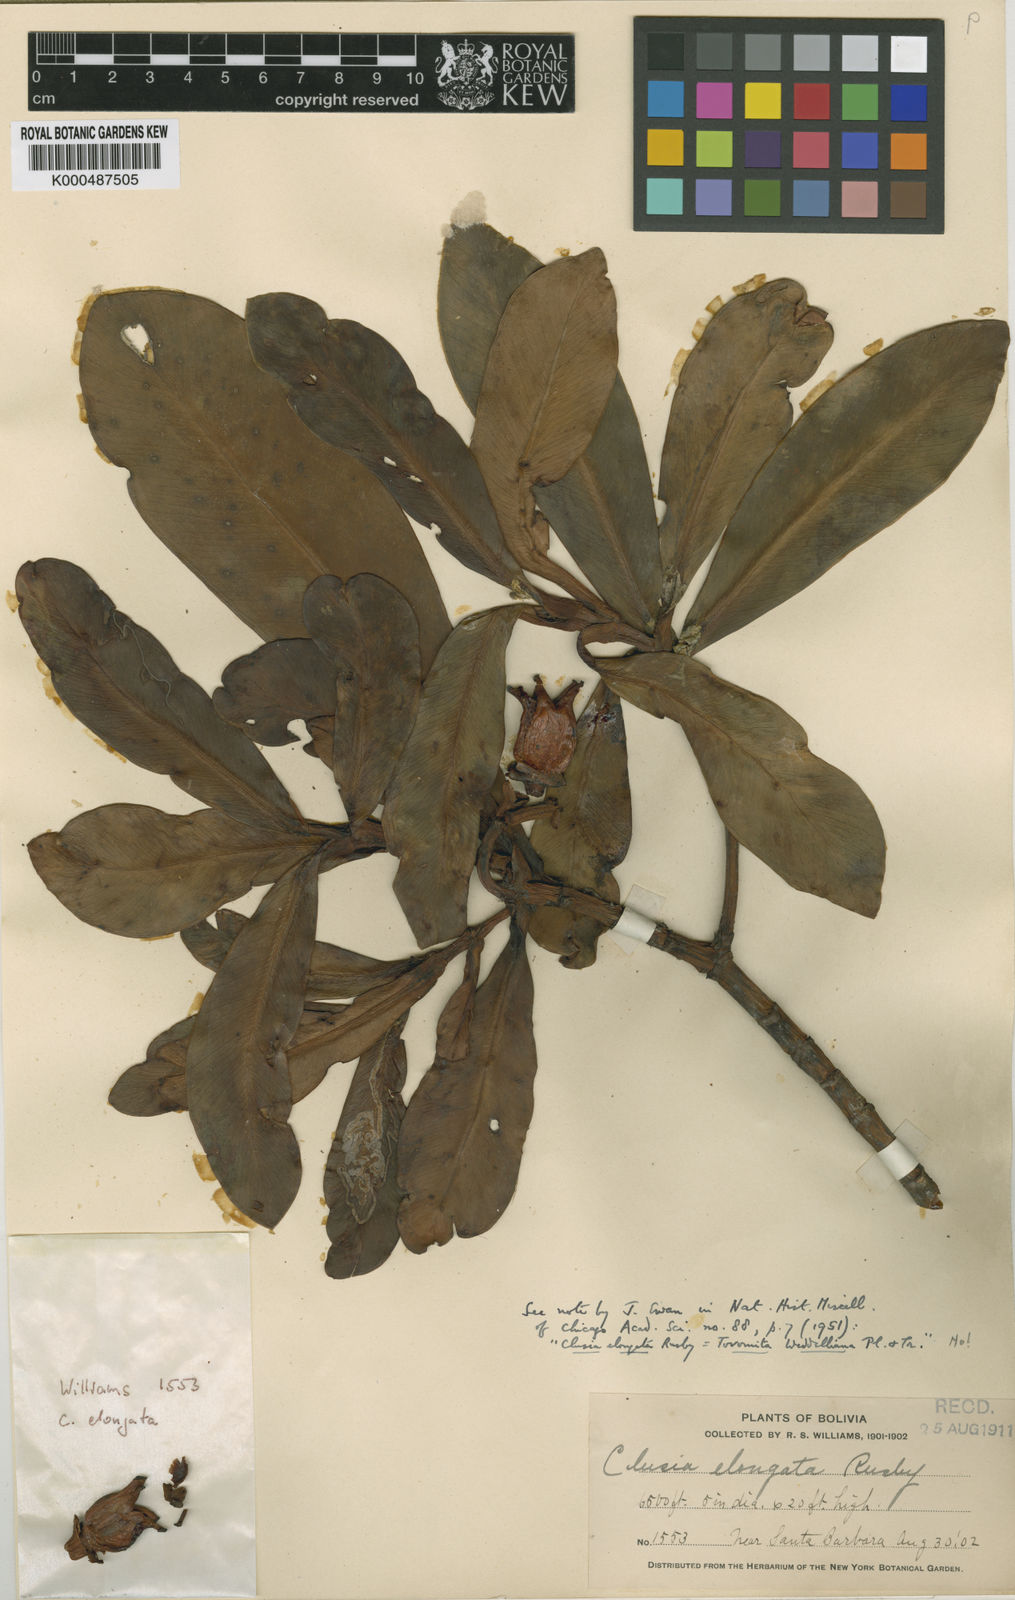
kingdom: Plantae
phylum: Tracheophyta
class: Magnoliopsida
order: Malpighiales
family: Clusiaceae
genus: Clusia
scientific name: Clusia elongata
